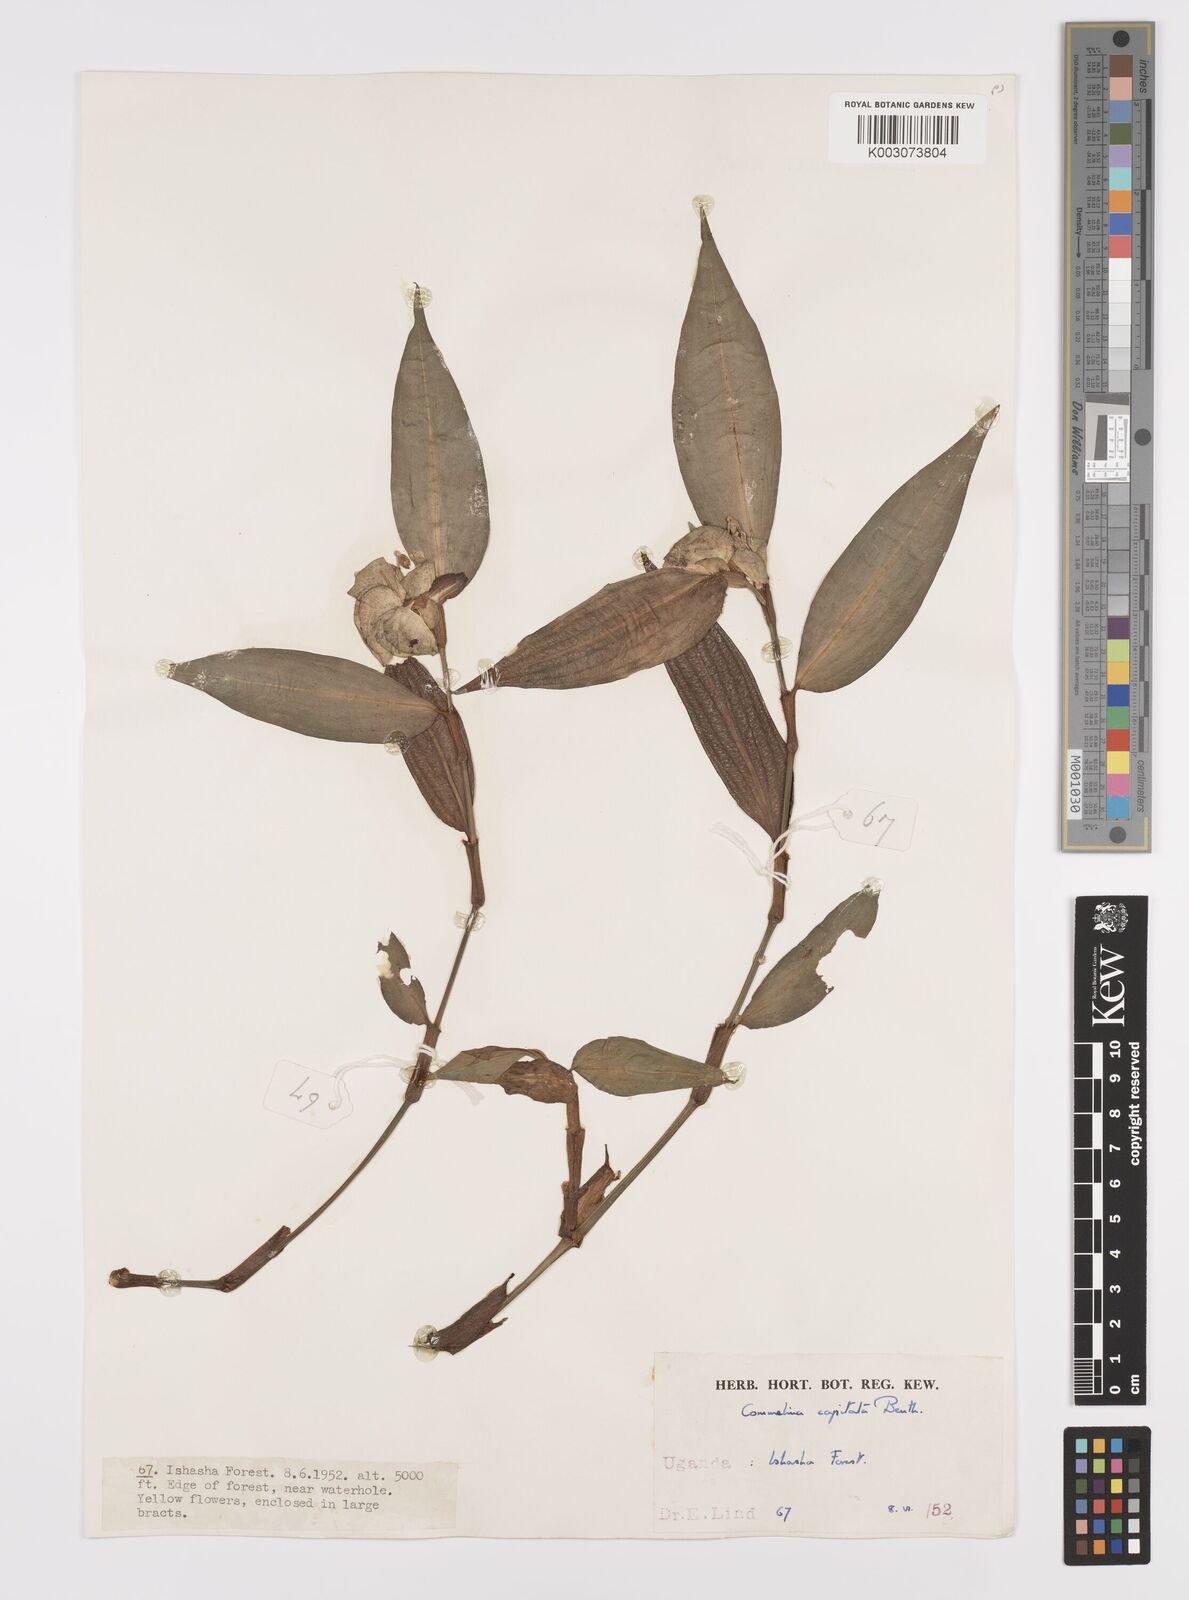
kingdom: Plantae
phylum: Tracheophyta
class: Liliopsida
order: Commelinales
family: Commelinaceae
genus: Commelina
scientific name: Commelina capitata
